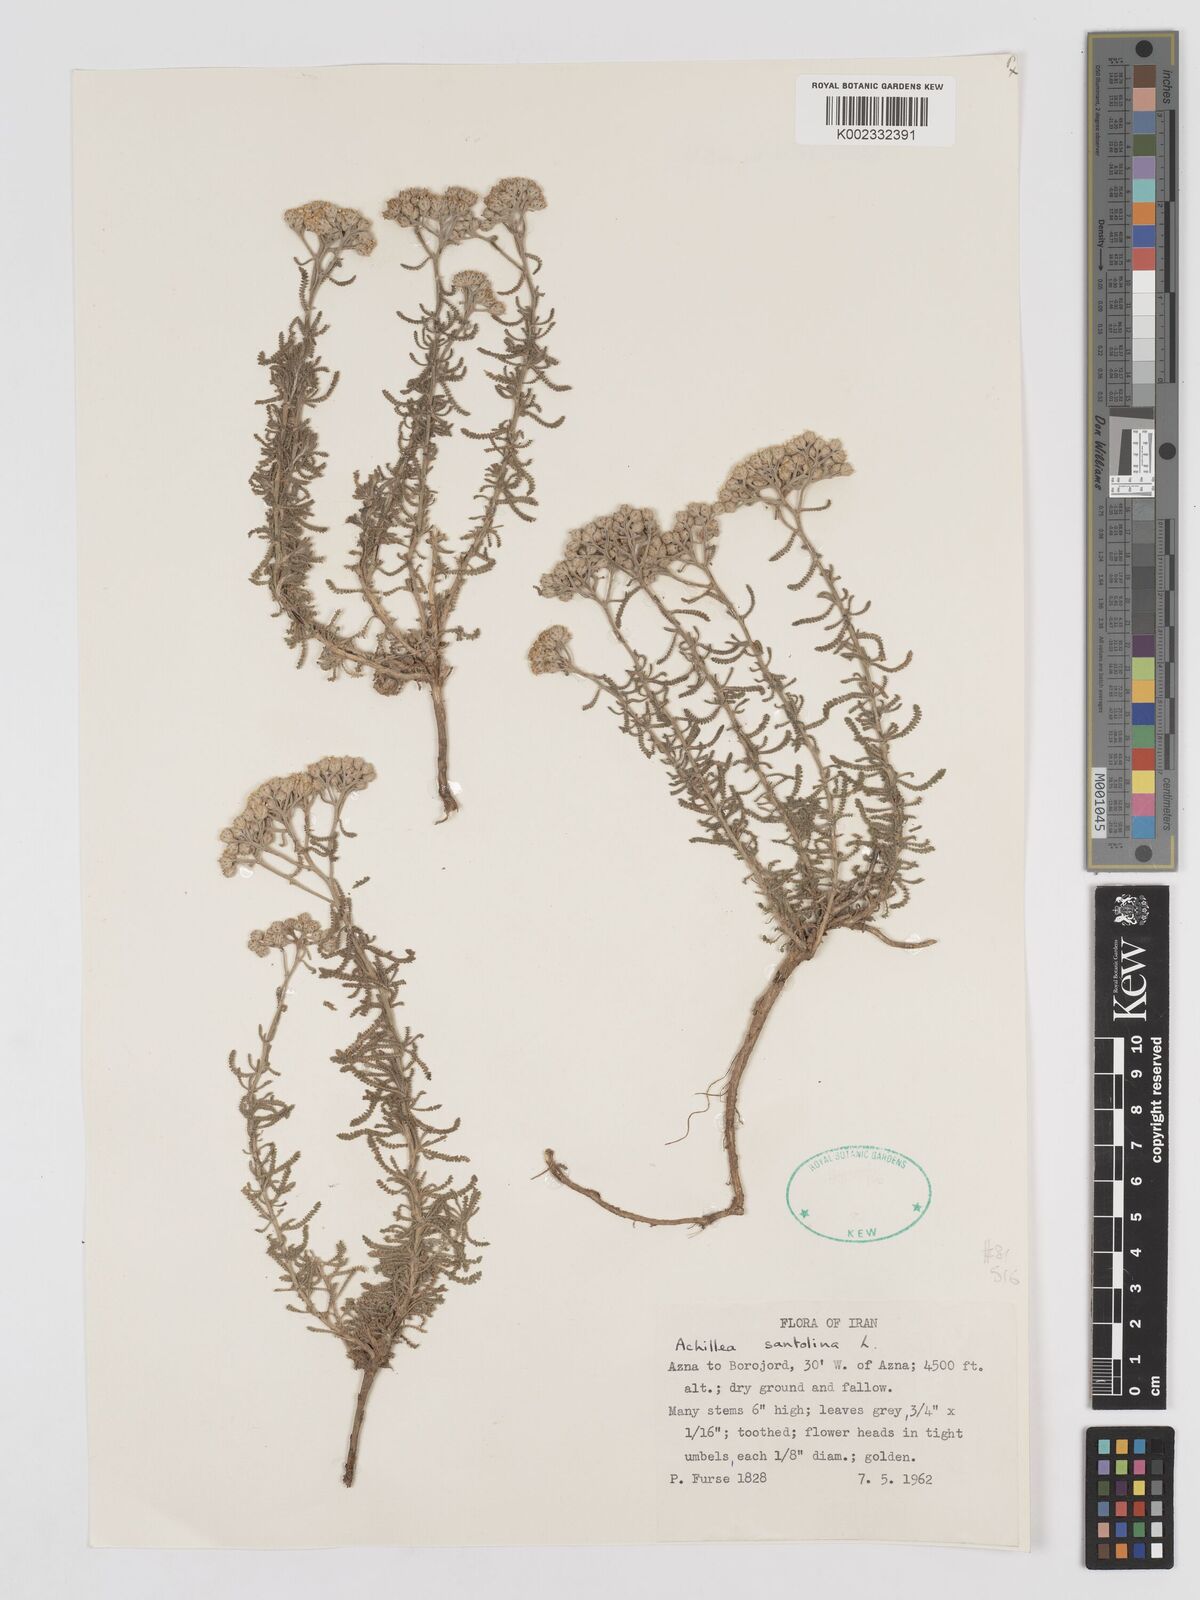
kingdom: Plantae
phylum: Tracheophyta
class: Magnoliopsida
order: Asterales
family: Asteraceae
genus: Achillea
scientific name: Achillea cretica
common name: Chamomile-leaved lavender-cotton
